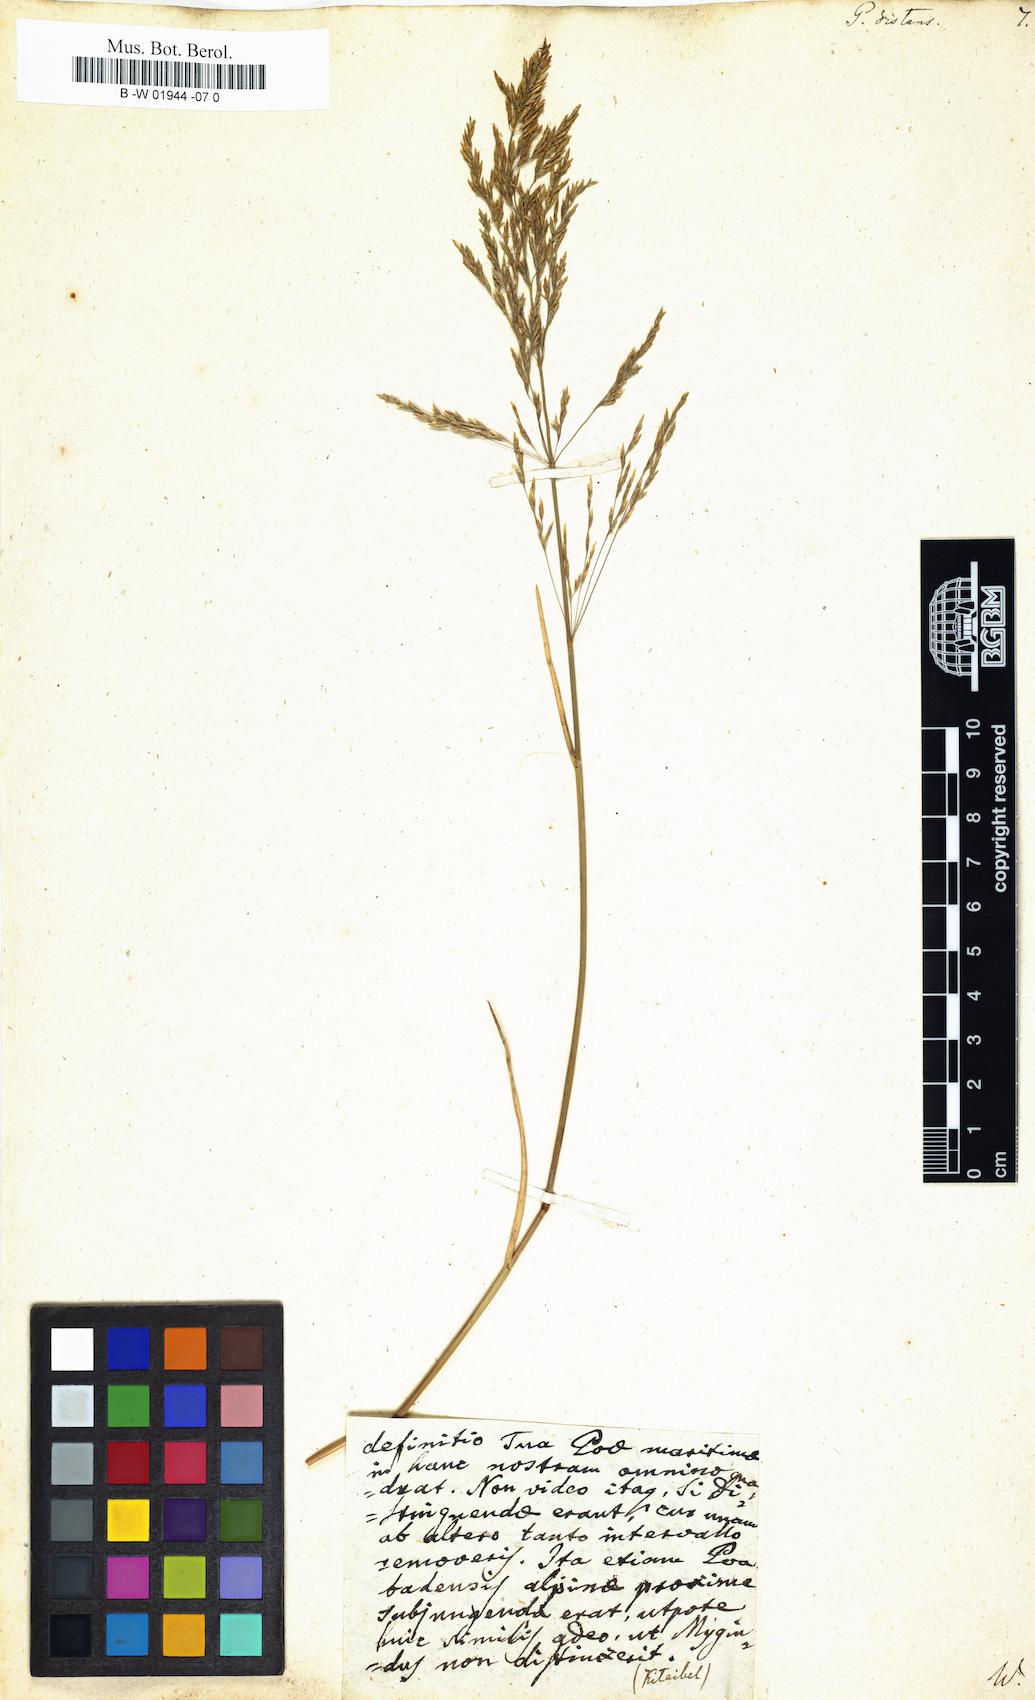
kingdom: Plantae
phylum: Tracheophyta
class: Liliopsida
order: Poales
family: Poaceae
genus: Poa
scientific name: Poa distans
